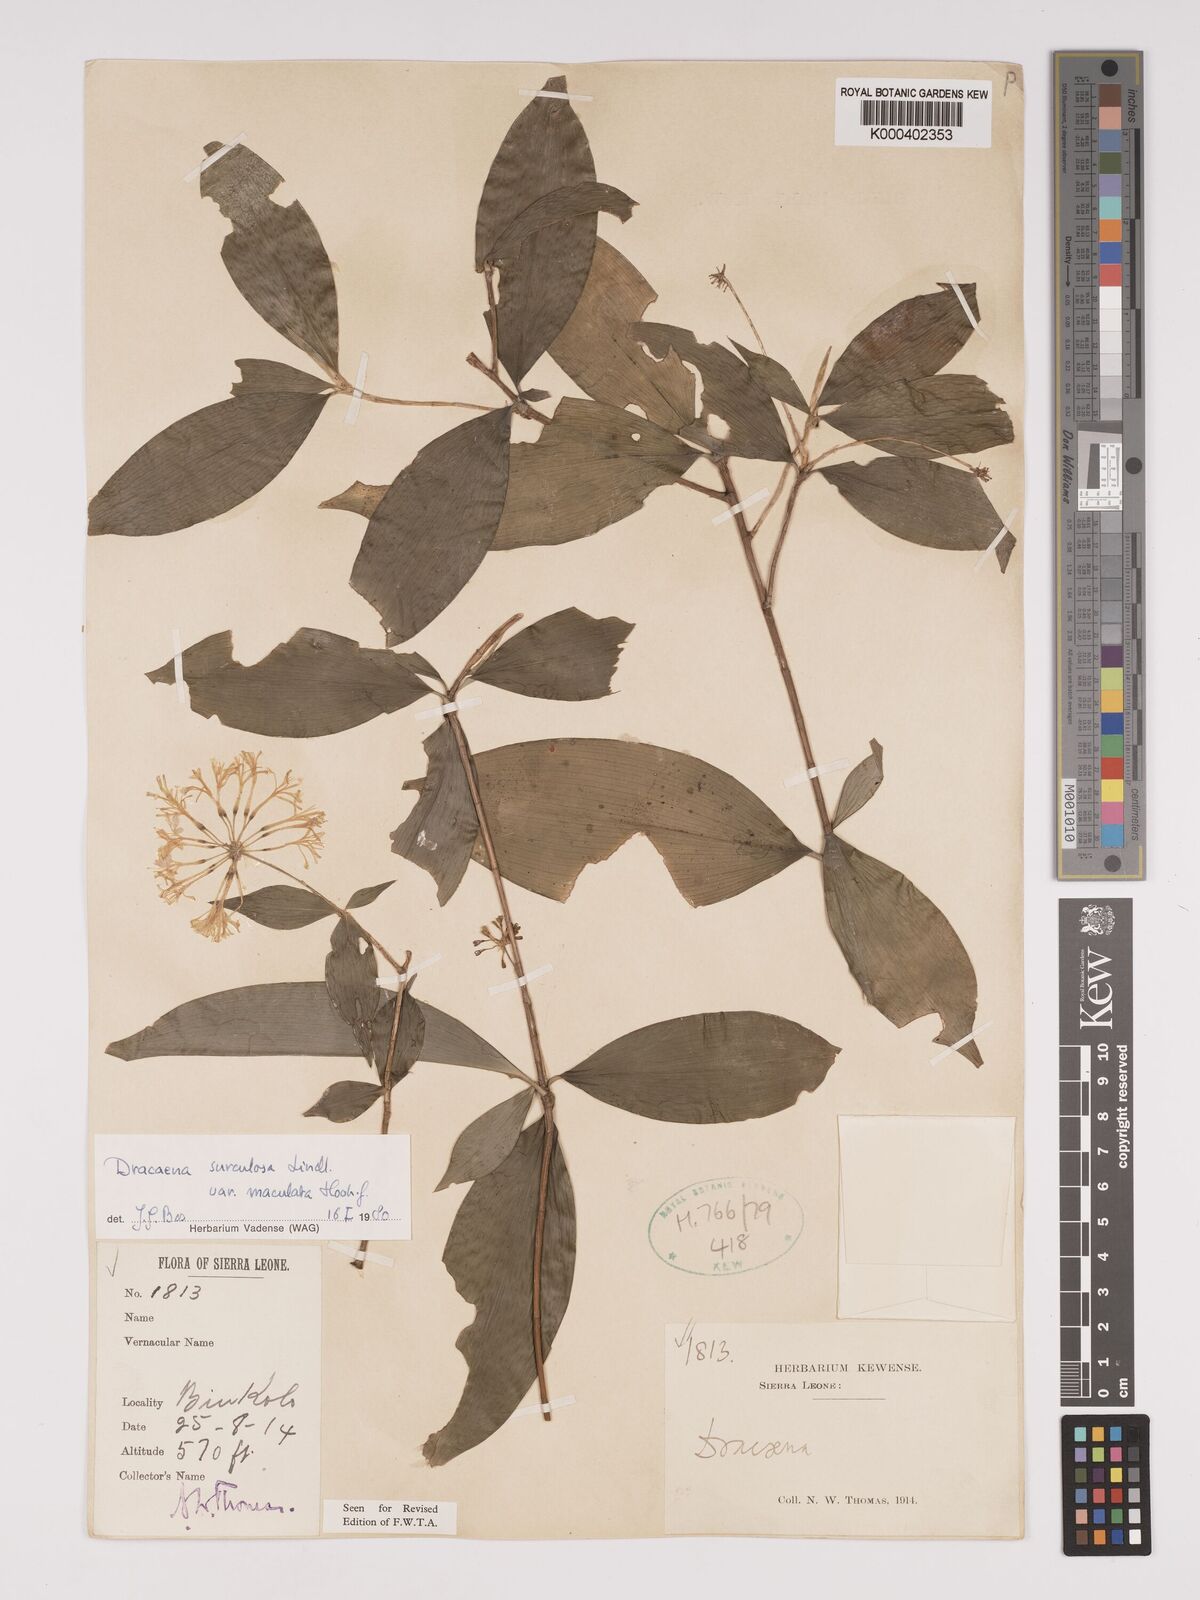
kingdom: Plantae
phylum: Tracheophyta
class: Liliopsida
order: Asparagales
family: Asparagaceae
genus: Dracaena
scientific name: Dracaena surculosa
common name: Spotted dracaena
